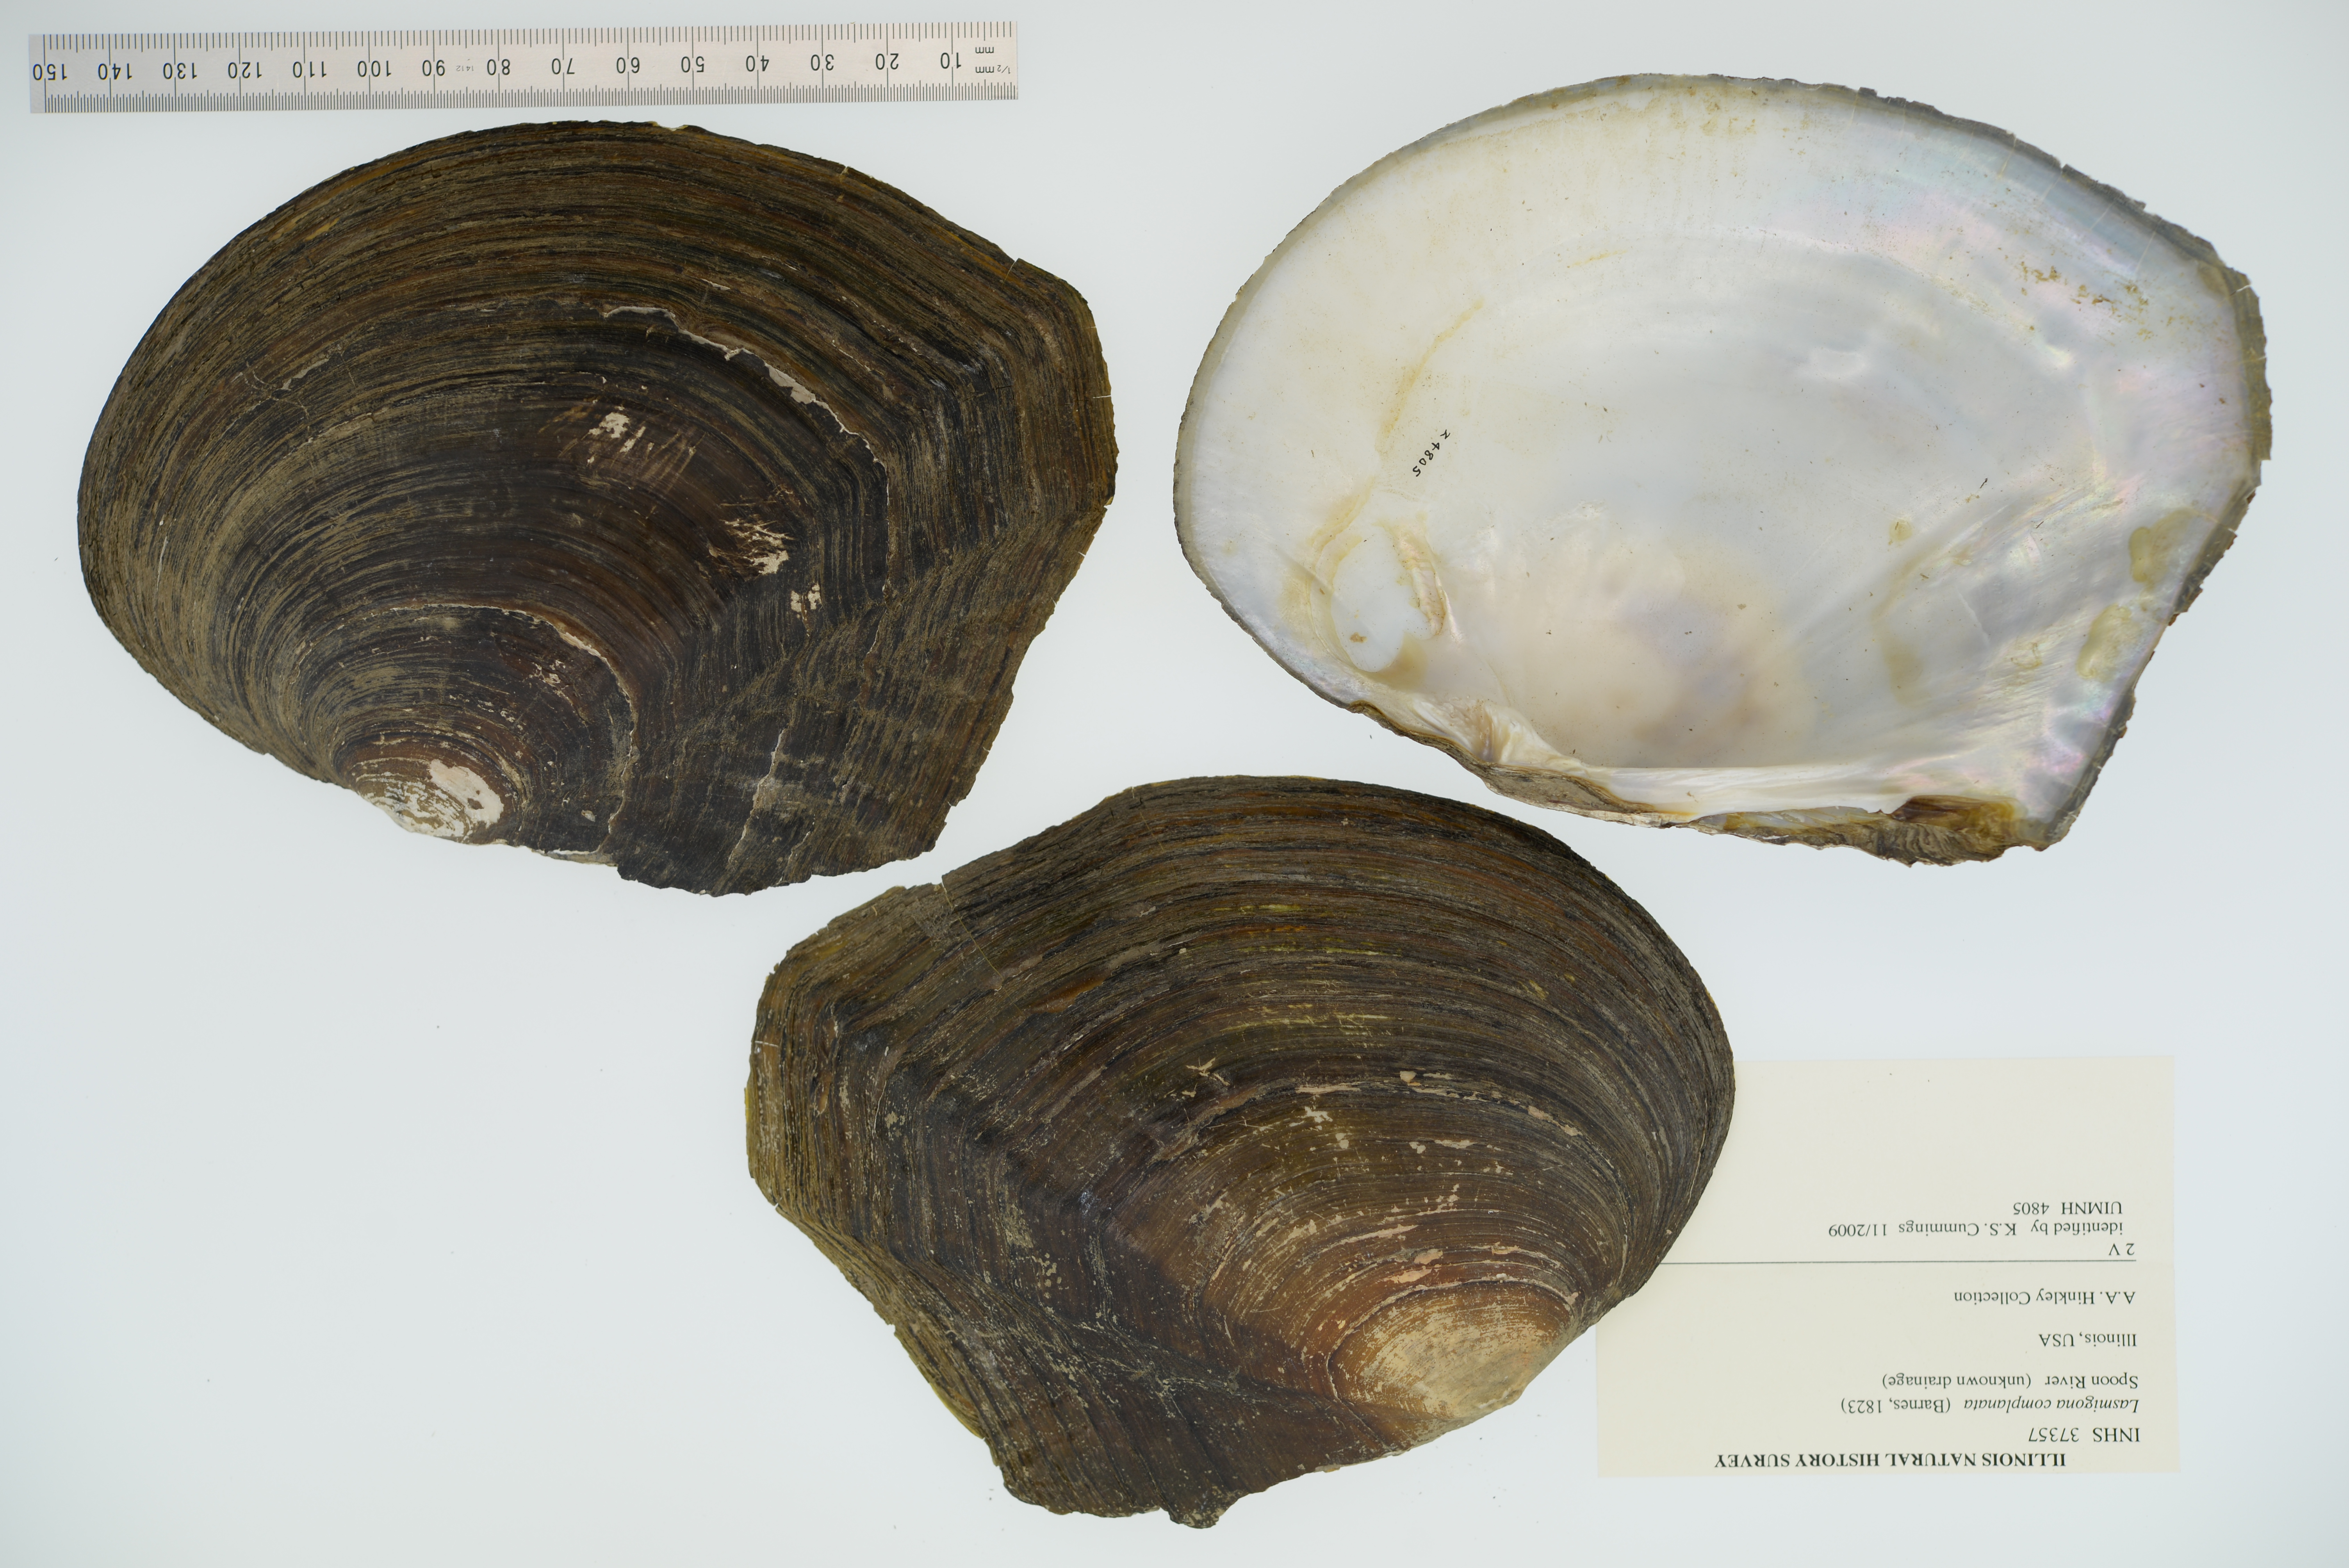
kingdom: Animalia
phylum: Mollusca
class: Bivalvia
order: Unionida
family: Unionidae
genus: Lasmigona
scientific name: Lasmigona complanata
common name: White heelsplitter
